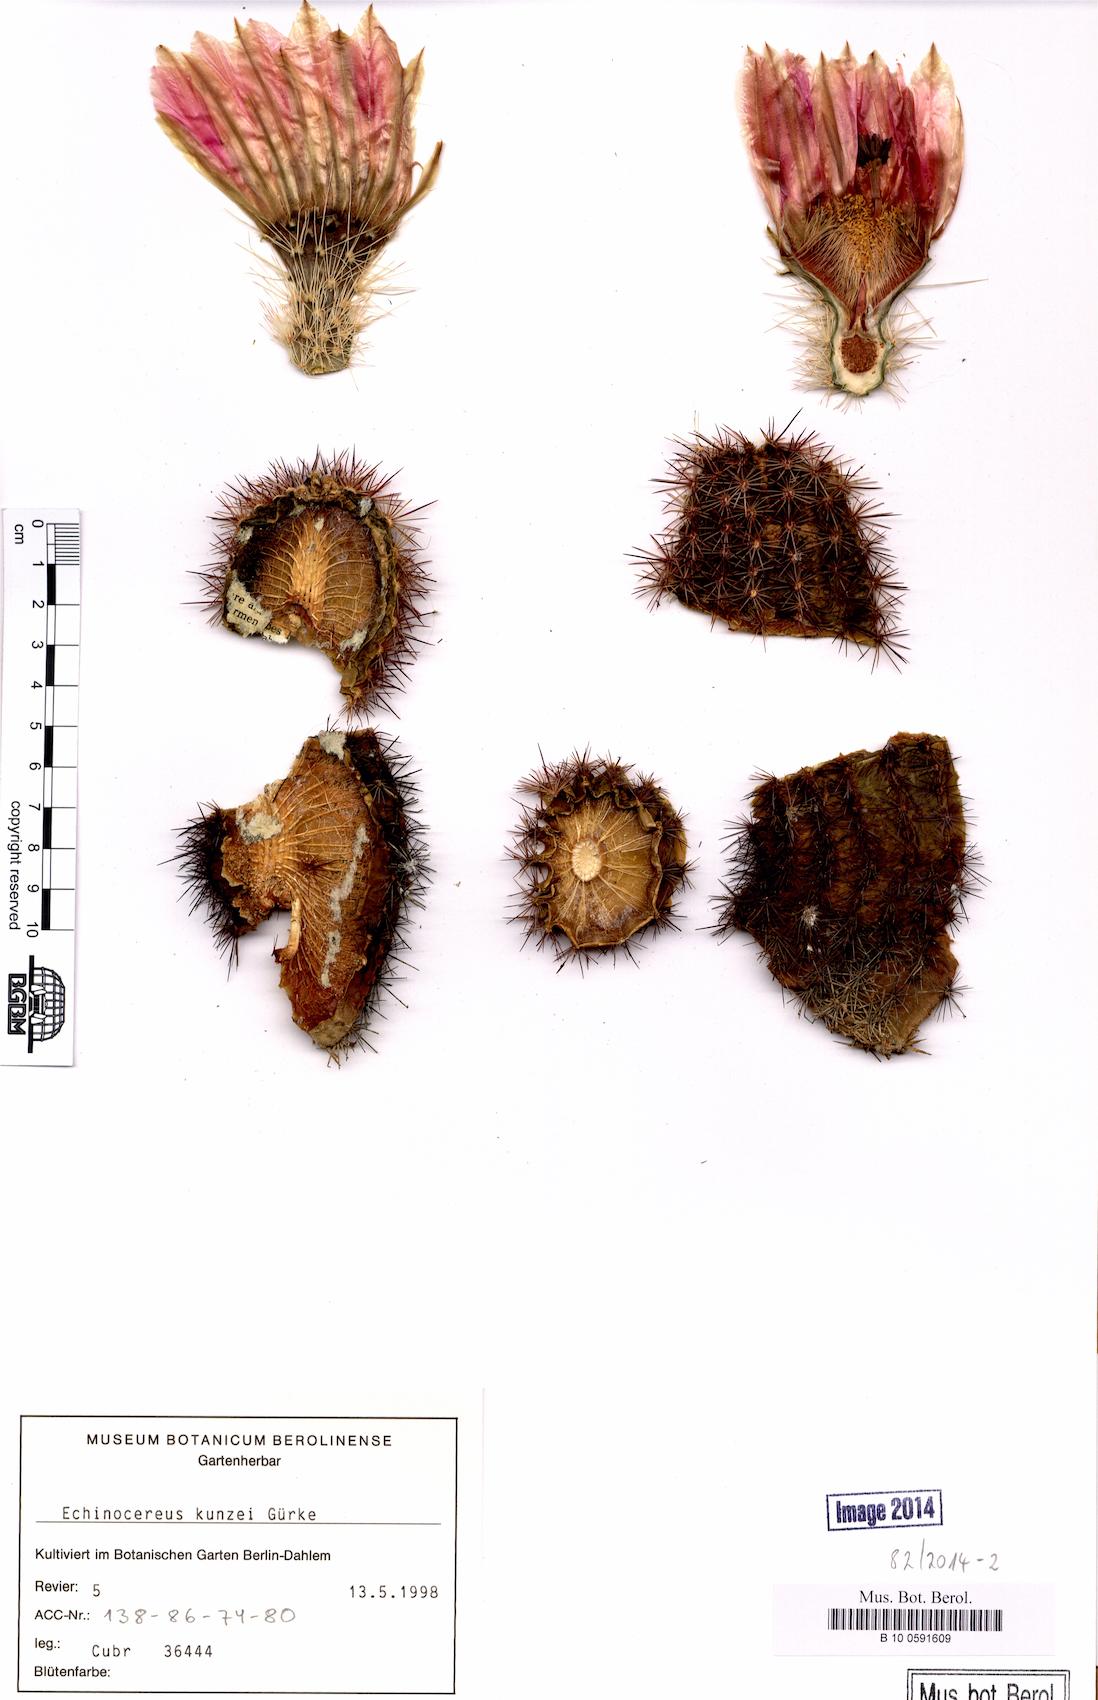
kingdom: Plantae
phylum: Tracheophyta
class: Magnoliopsida
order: Caryophyllales
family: Cactaceae
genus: Echinocereus
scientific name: Echinocereus kunzei
